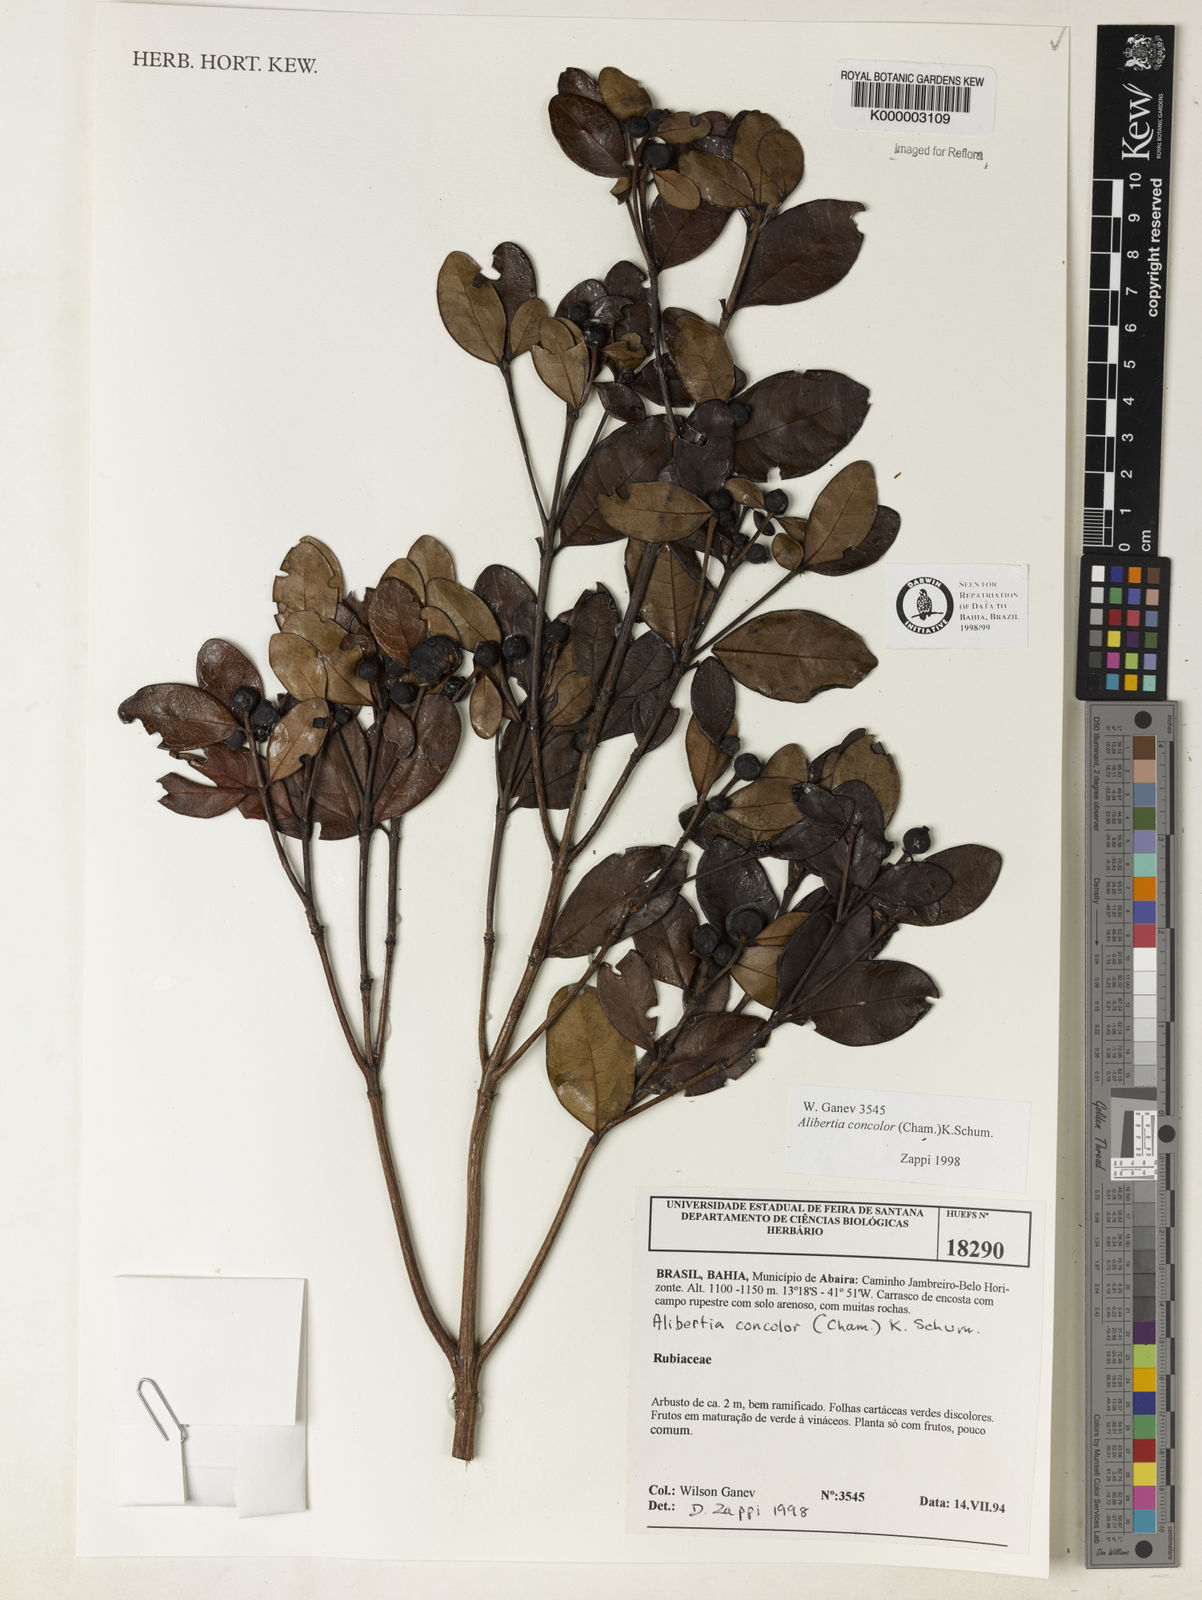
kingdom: Plantae
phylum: Tracheophyta
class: Magnoliopsida
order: Gentianales
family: Rubiaceae
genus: Cordiera
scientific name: Cordiera concolor
